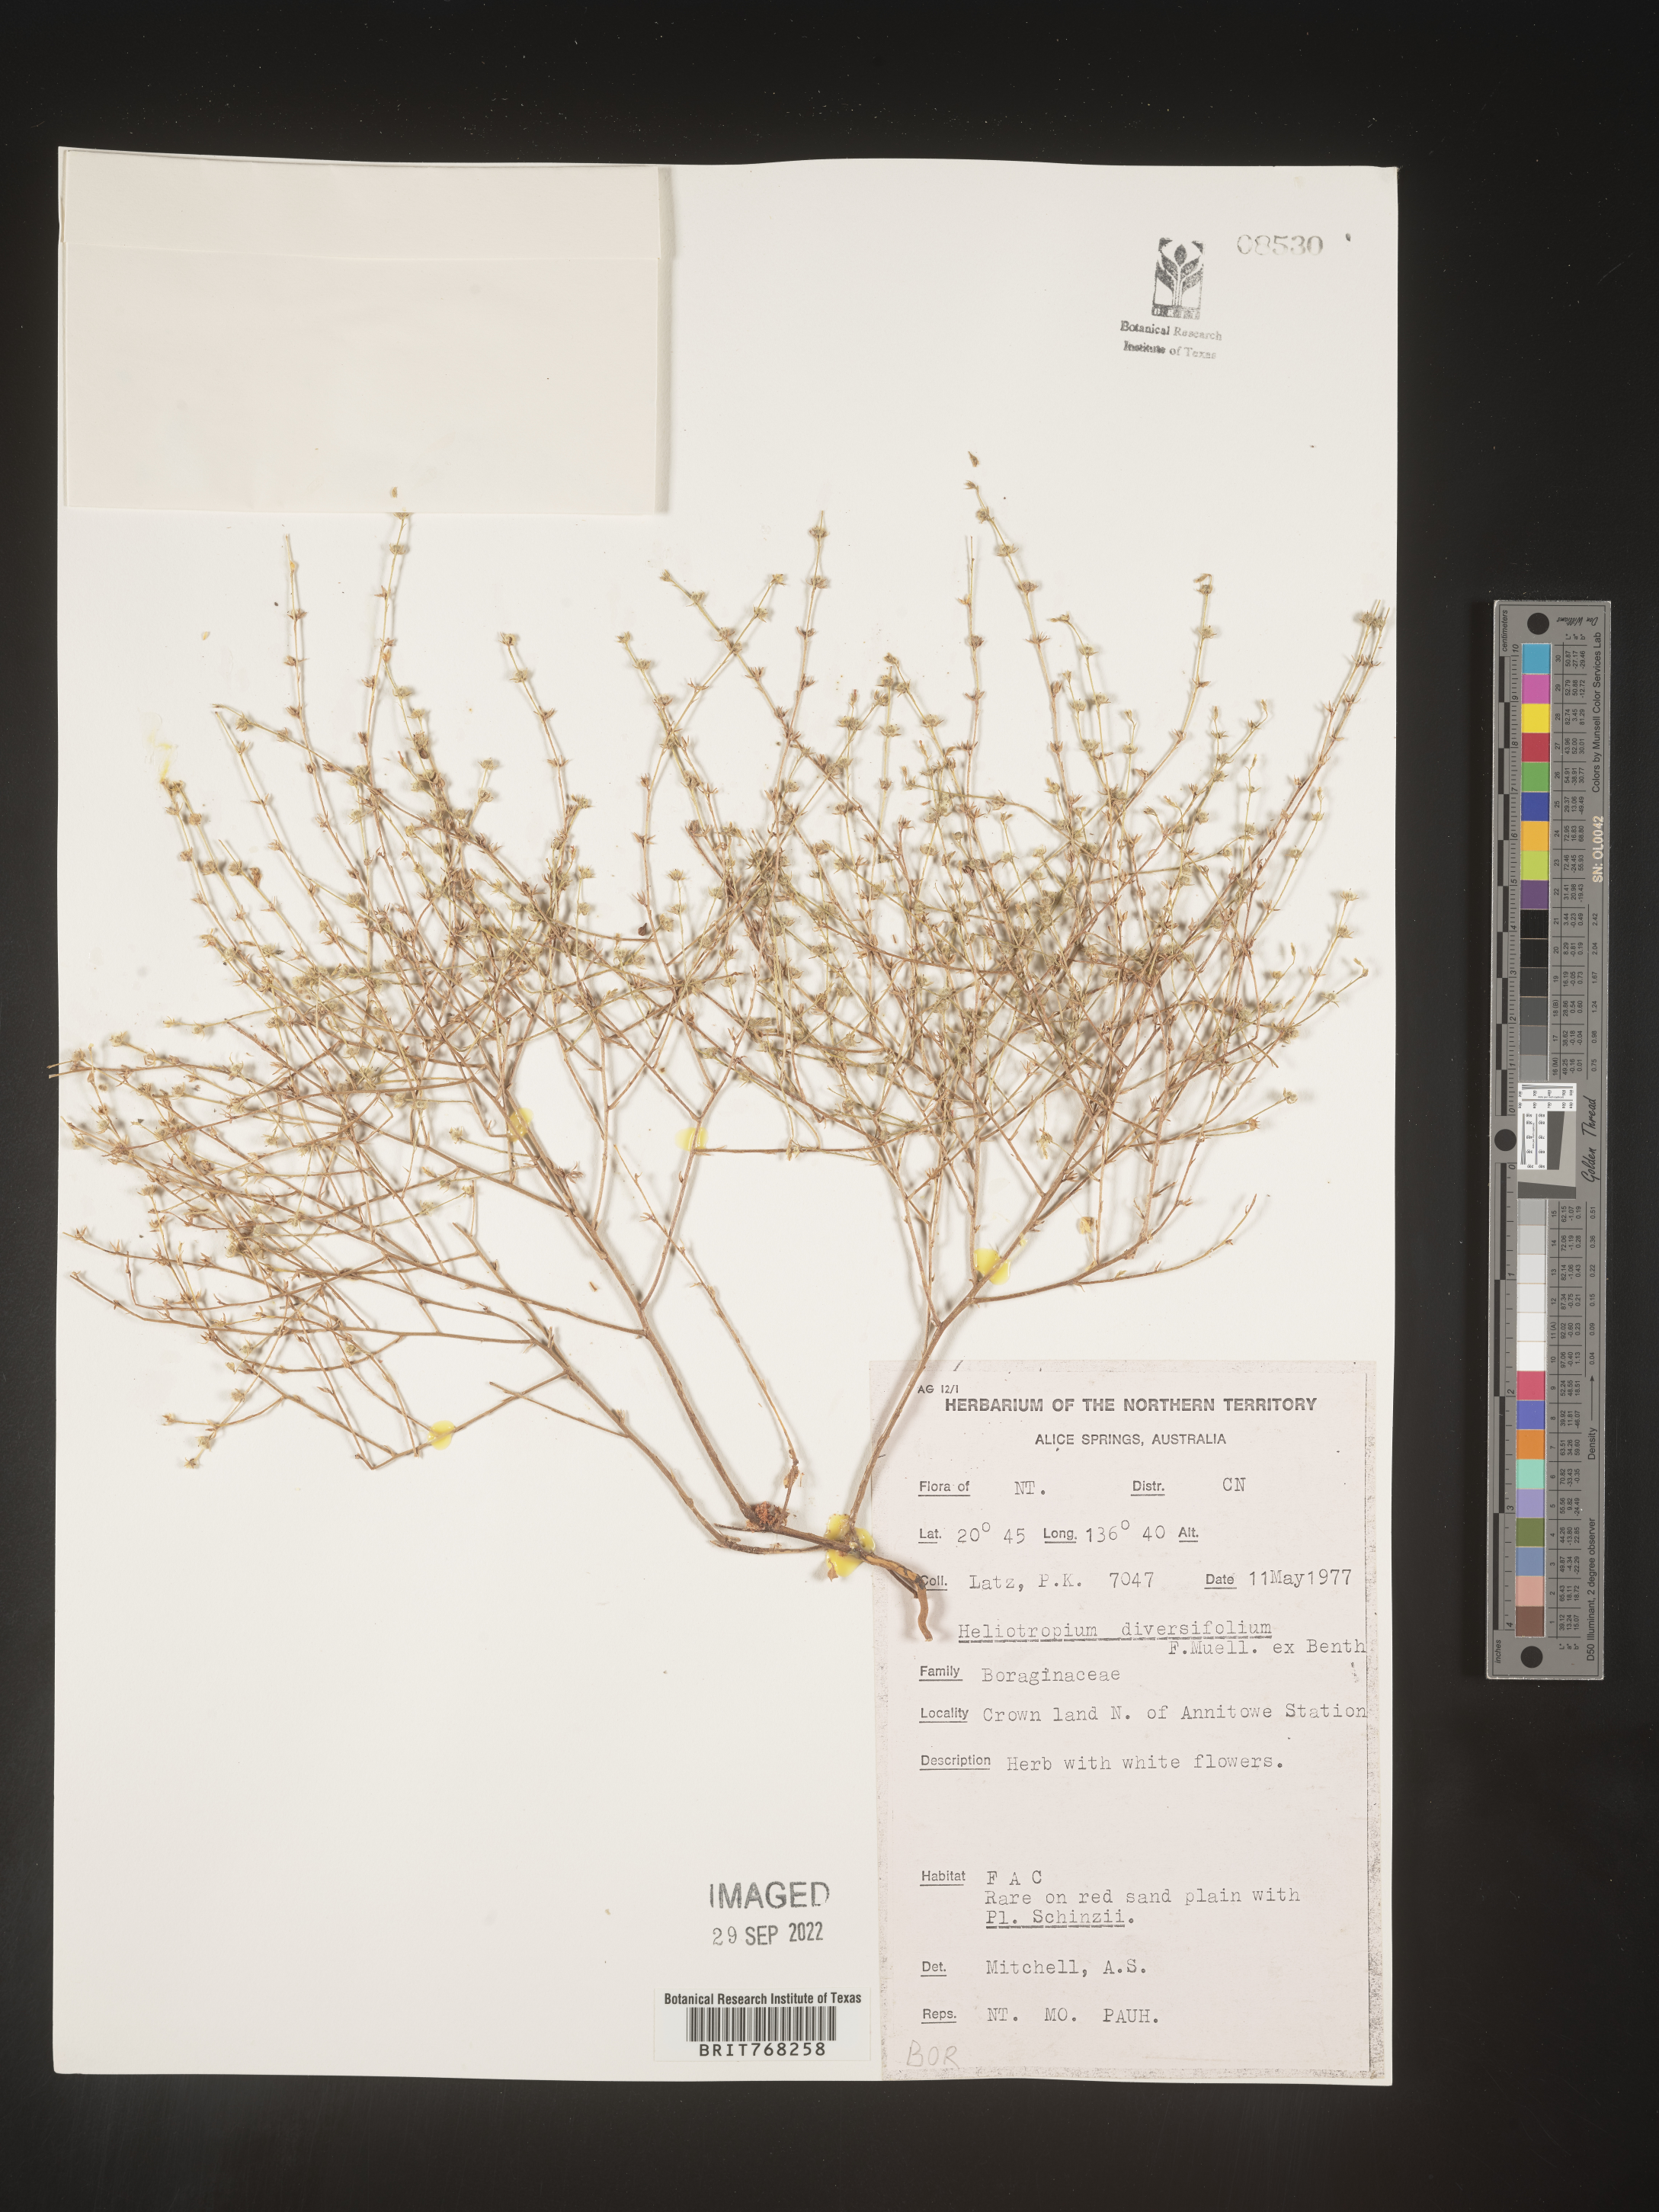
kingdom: Plantae
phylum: Tracheophyta
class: Magnoliopsida
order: Boraginales
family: Heliotropiaceae
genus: Heliotropium
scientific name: Heliotropium
